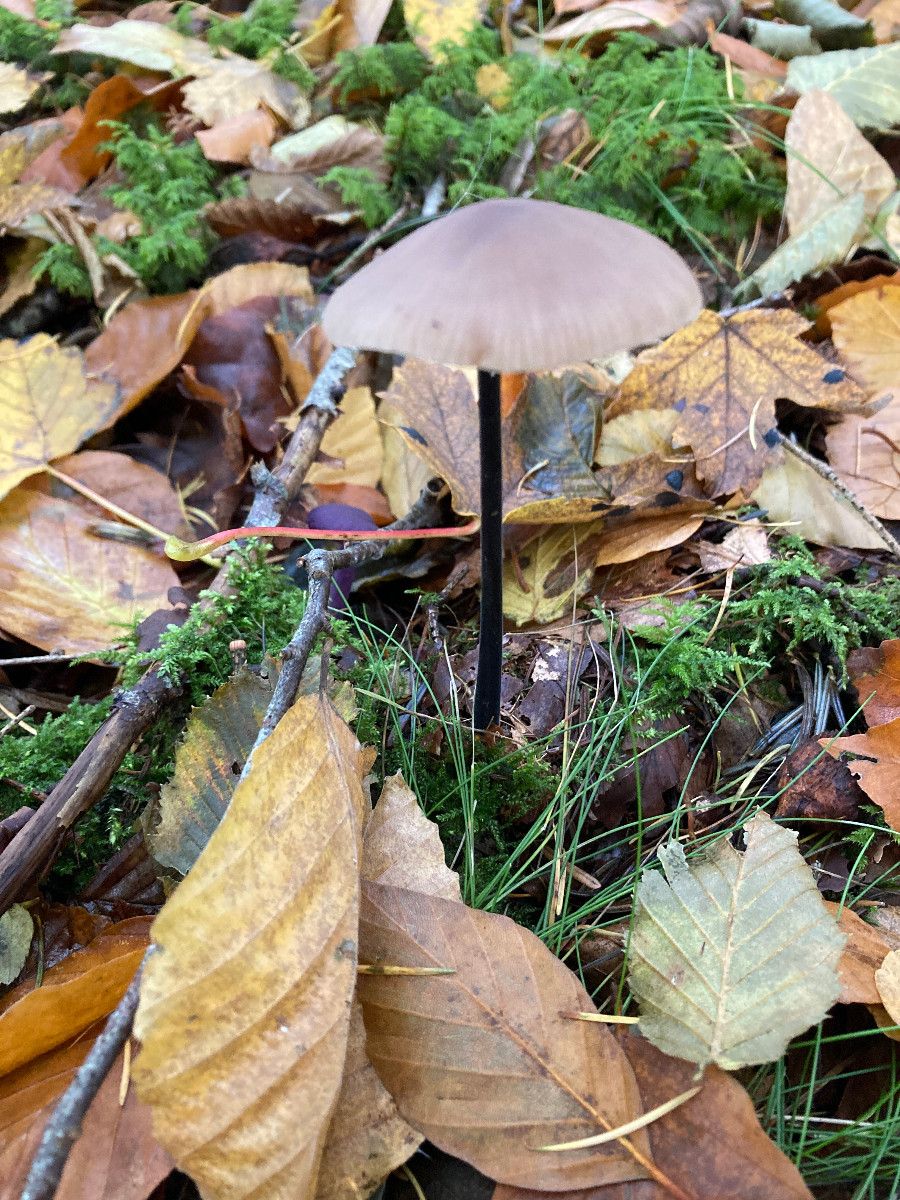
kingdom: Fungi
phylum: Basidiomycota
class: Agaricomycetes
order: Agaricales
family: Omphalotaceae
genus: Mycetinis
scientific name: Mycetinis alliaceus
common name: stor løghat
